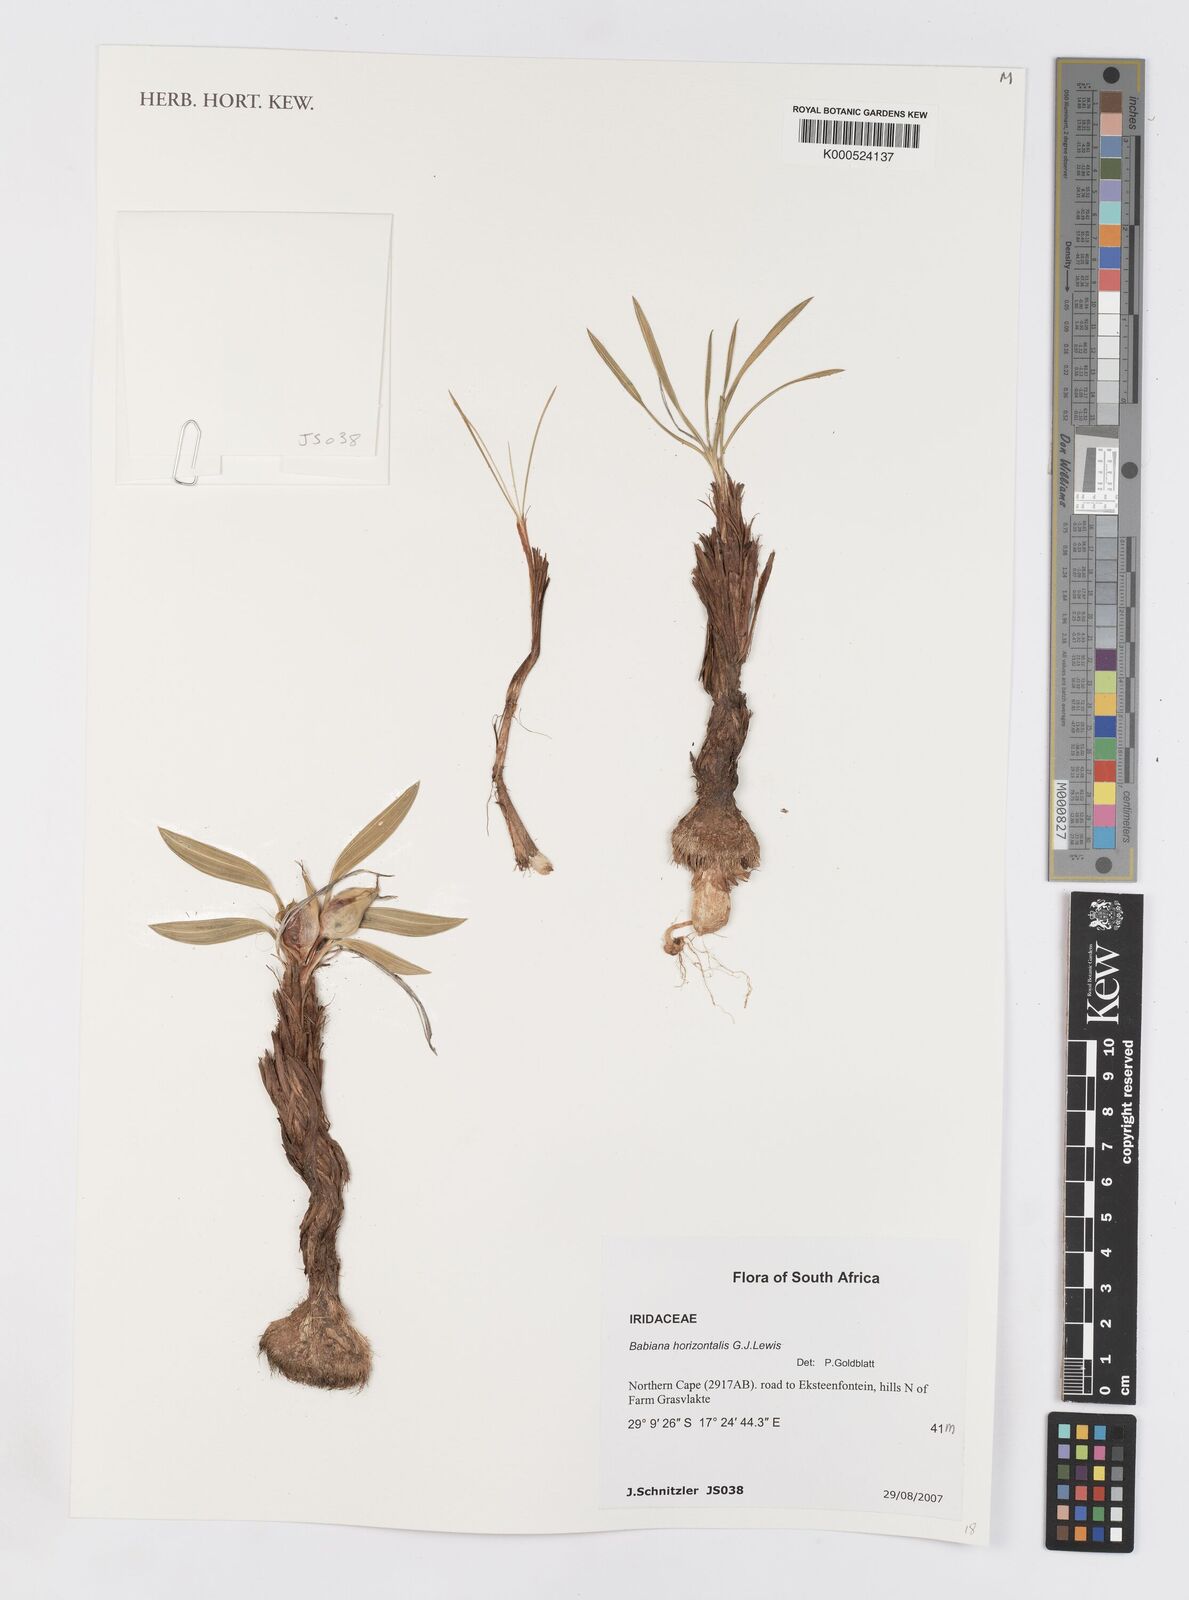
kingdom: Plantae
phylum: Tracheophyta
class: Liliopsida
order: Asparagales
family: Iridaceae
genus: Babiana
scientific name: Babiana horizontalis
